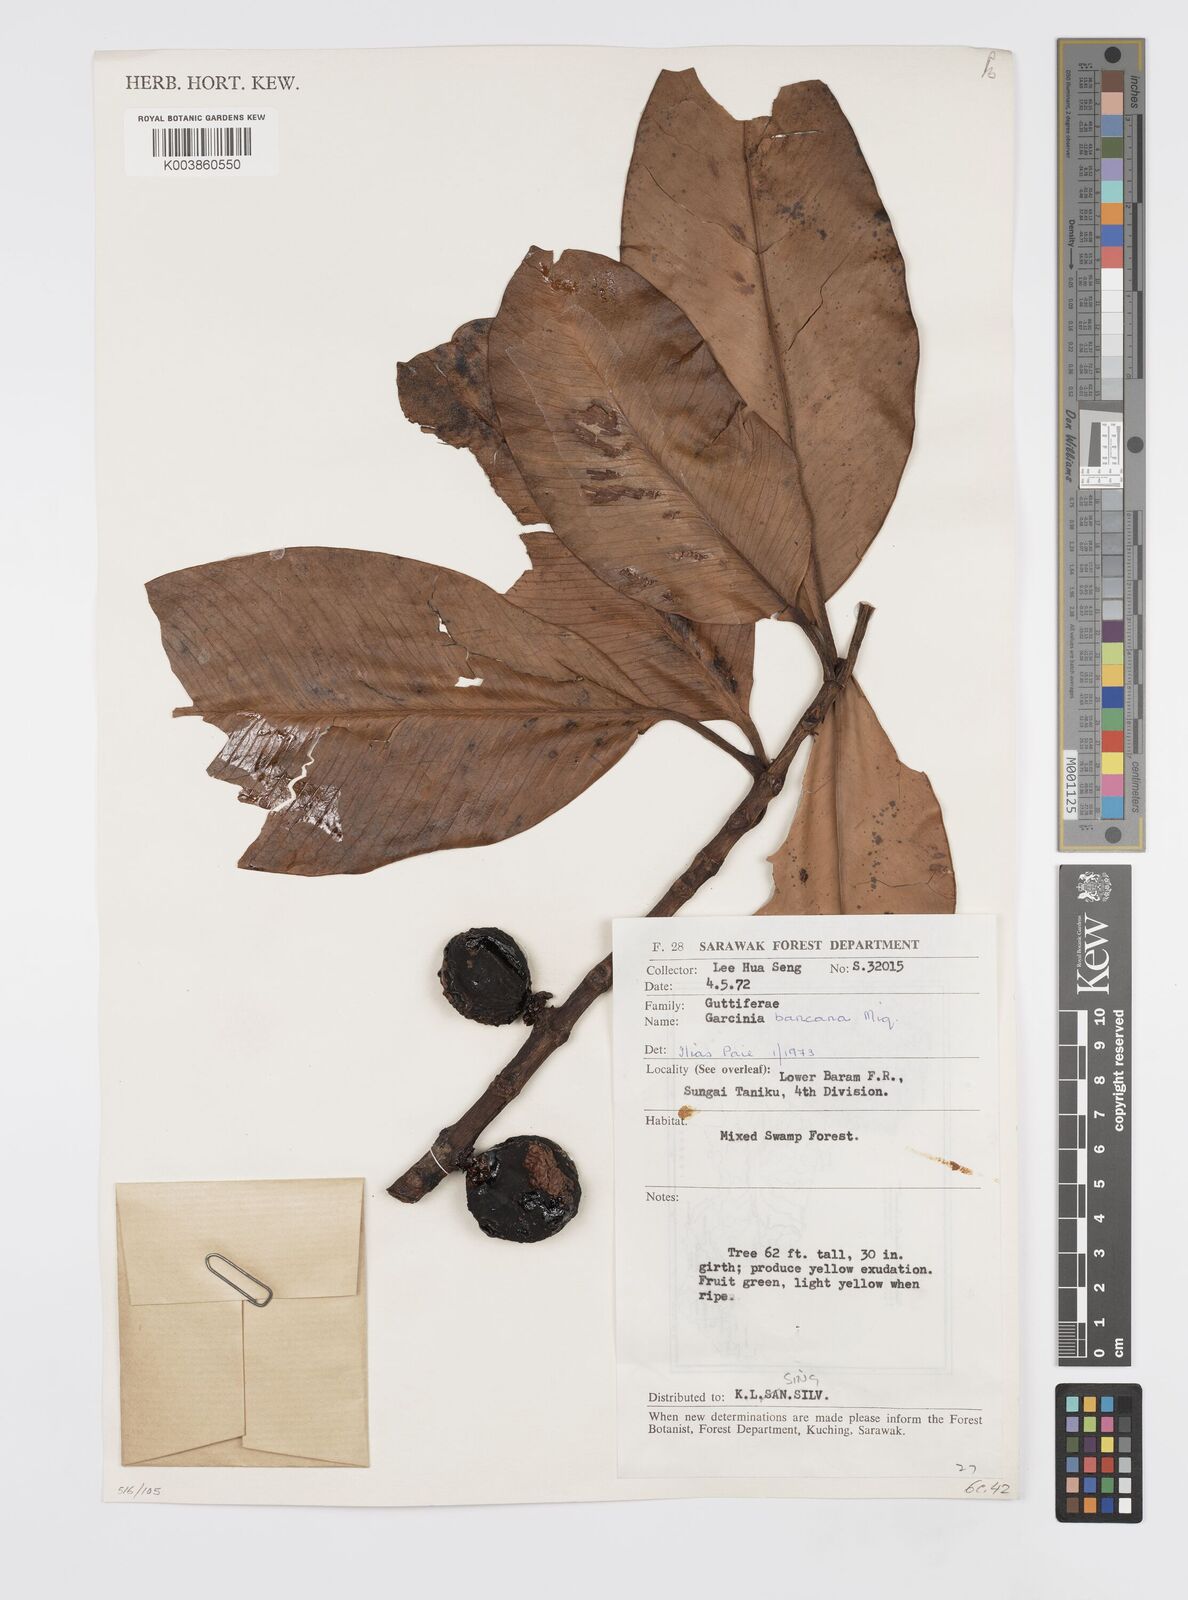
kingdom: Plantae
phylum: Tracheophyta
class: Magnoliopsida
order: Malpighiales
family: Clusiaceae
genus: Garcinia
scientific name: Garcinia bancana
